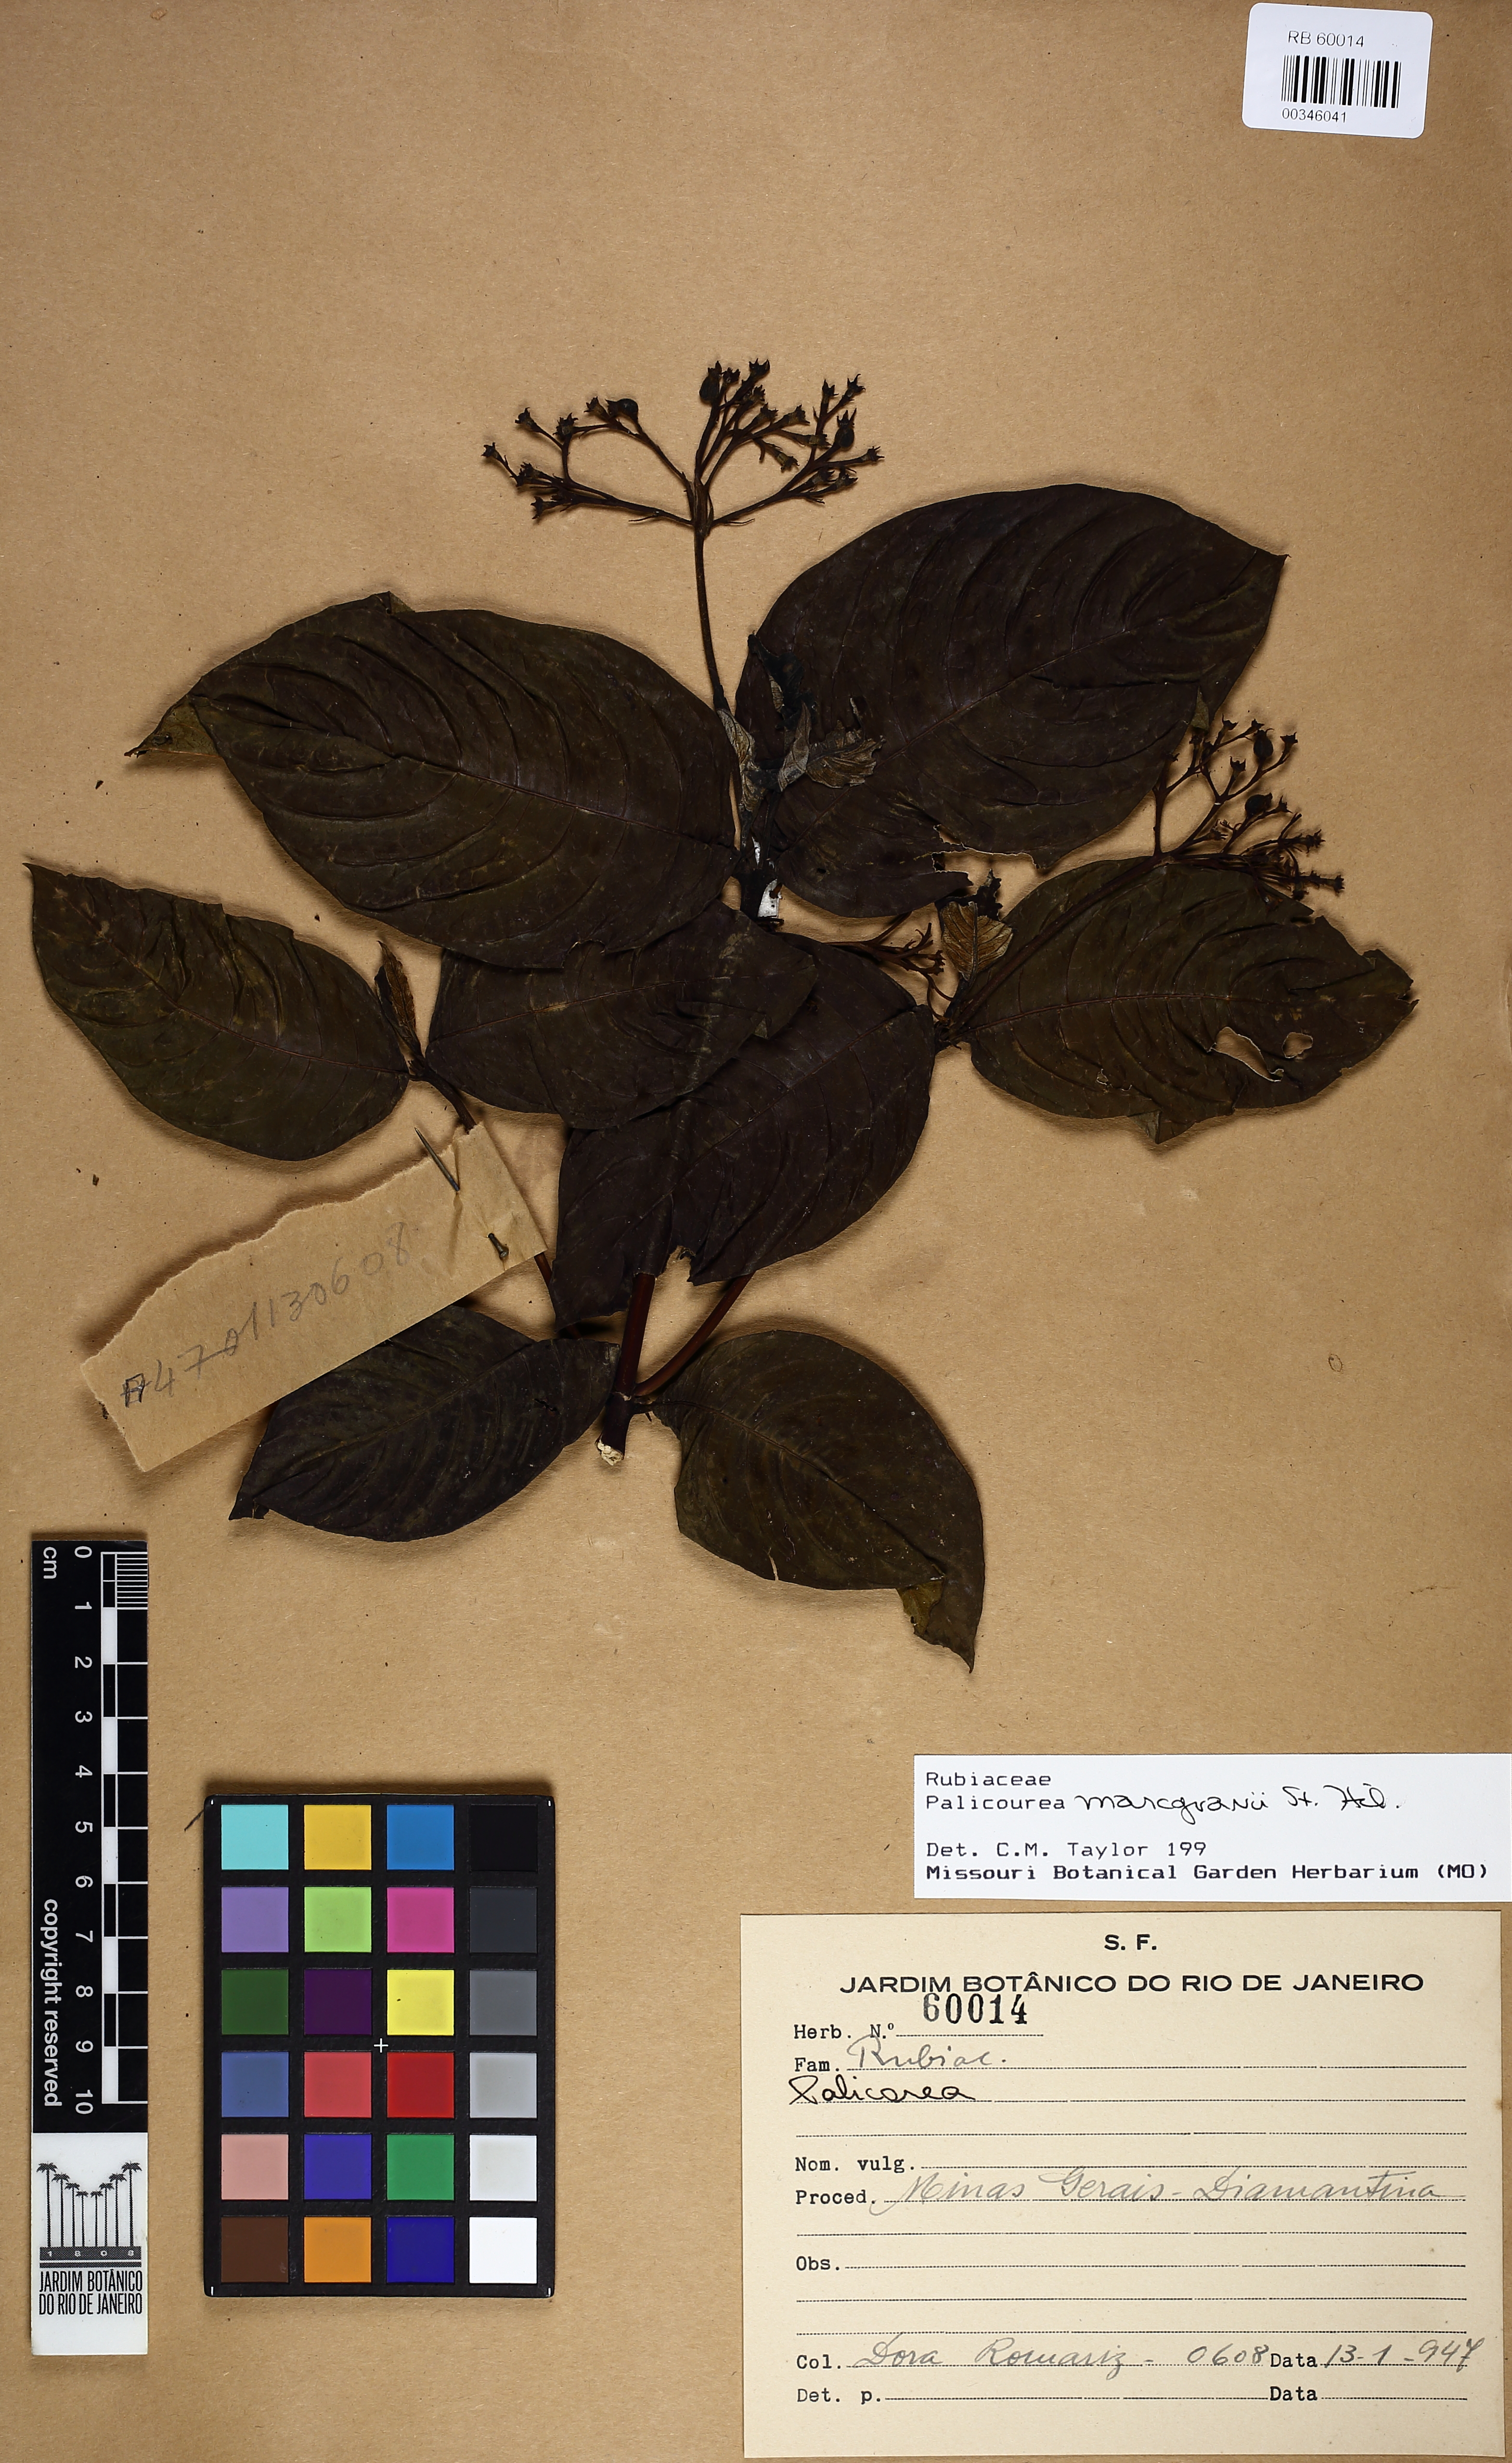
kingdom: Plantae
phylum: Tracheophyta
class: Magnoliopsida
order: Gentianales
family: Rubiaceae
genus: Palicourea
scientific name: Palicourea marcgravii
